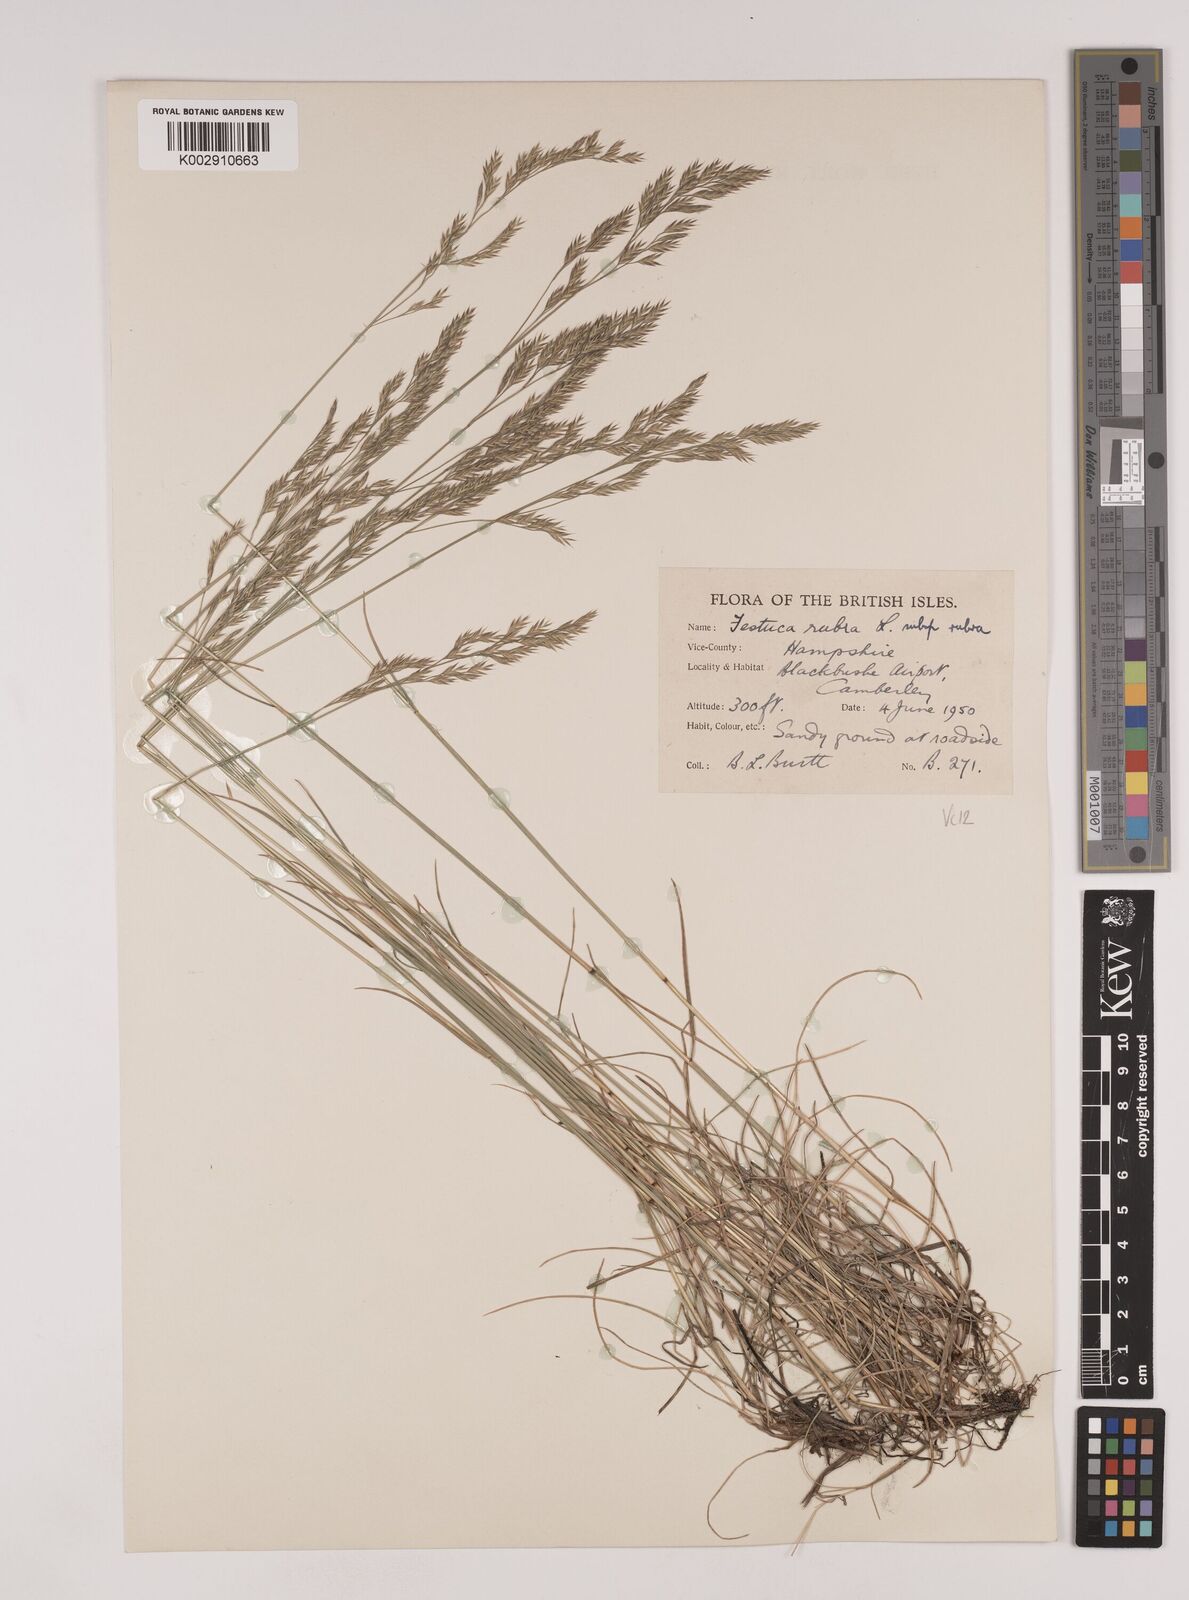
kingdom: Plantae
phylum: Tracheophyta
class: Liliopsida
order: Poales
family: Poaceae
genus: Festuca
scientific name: Festuca rubra
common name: Red fescue
